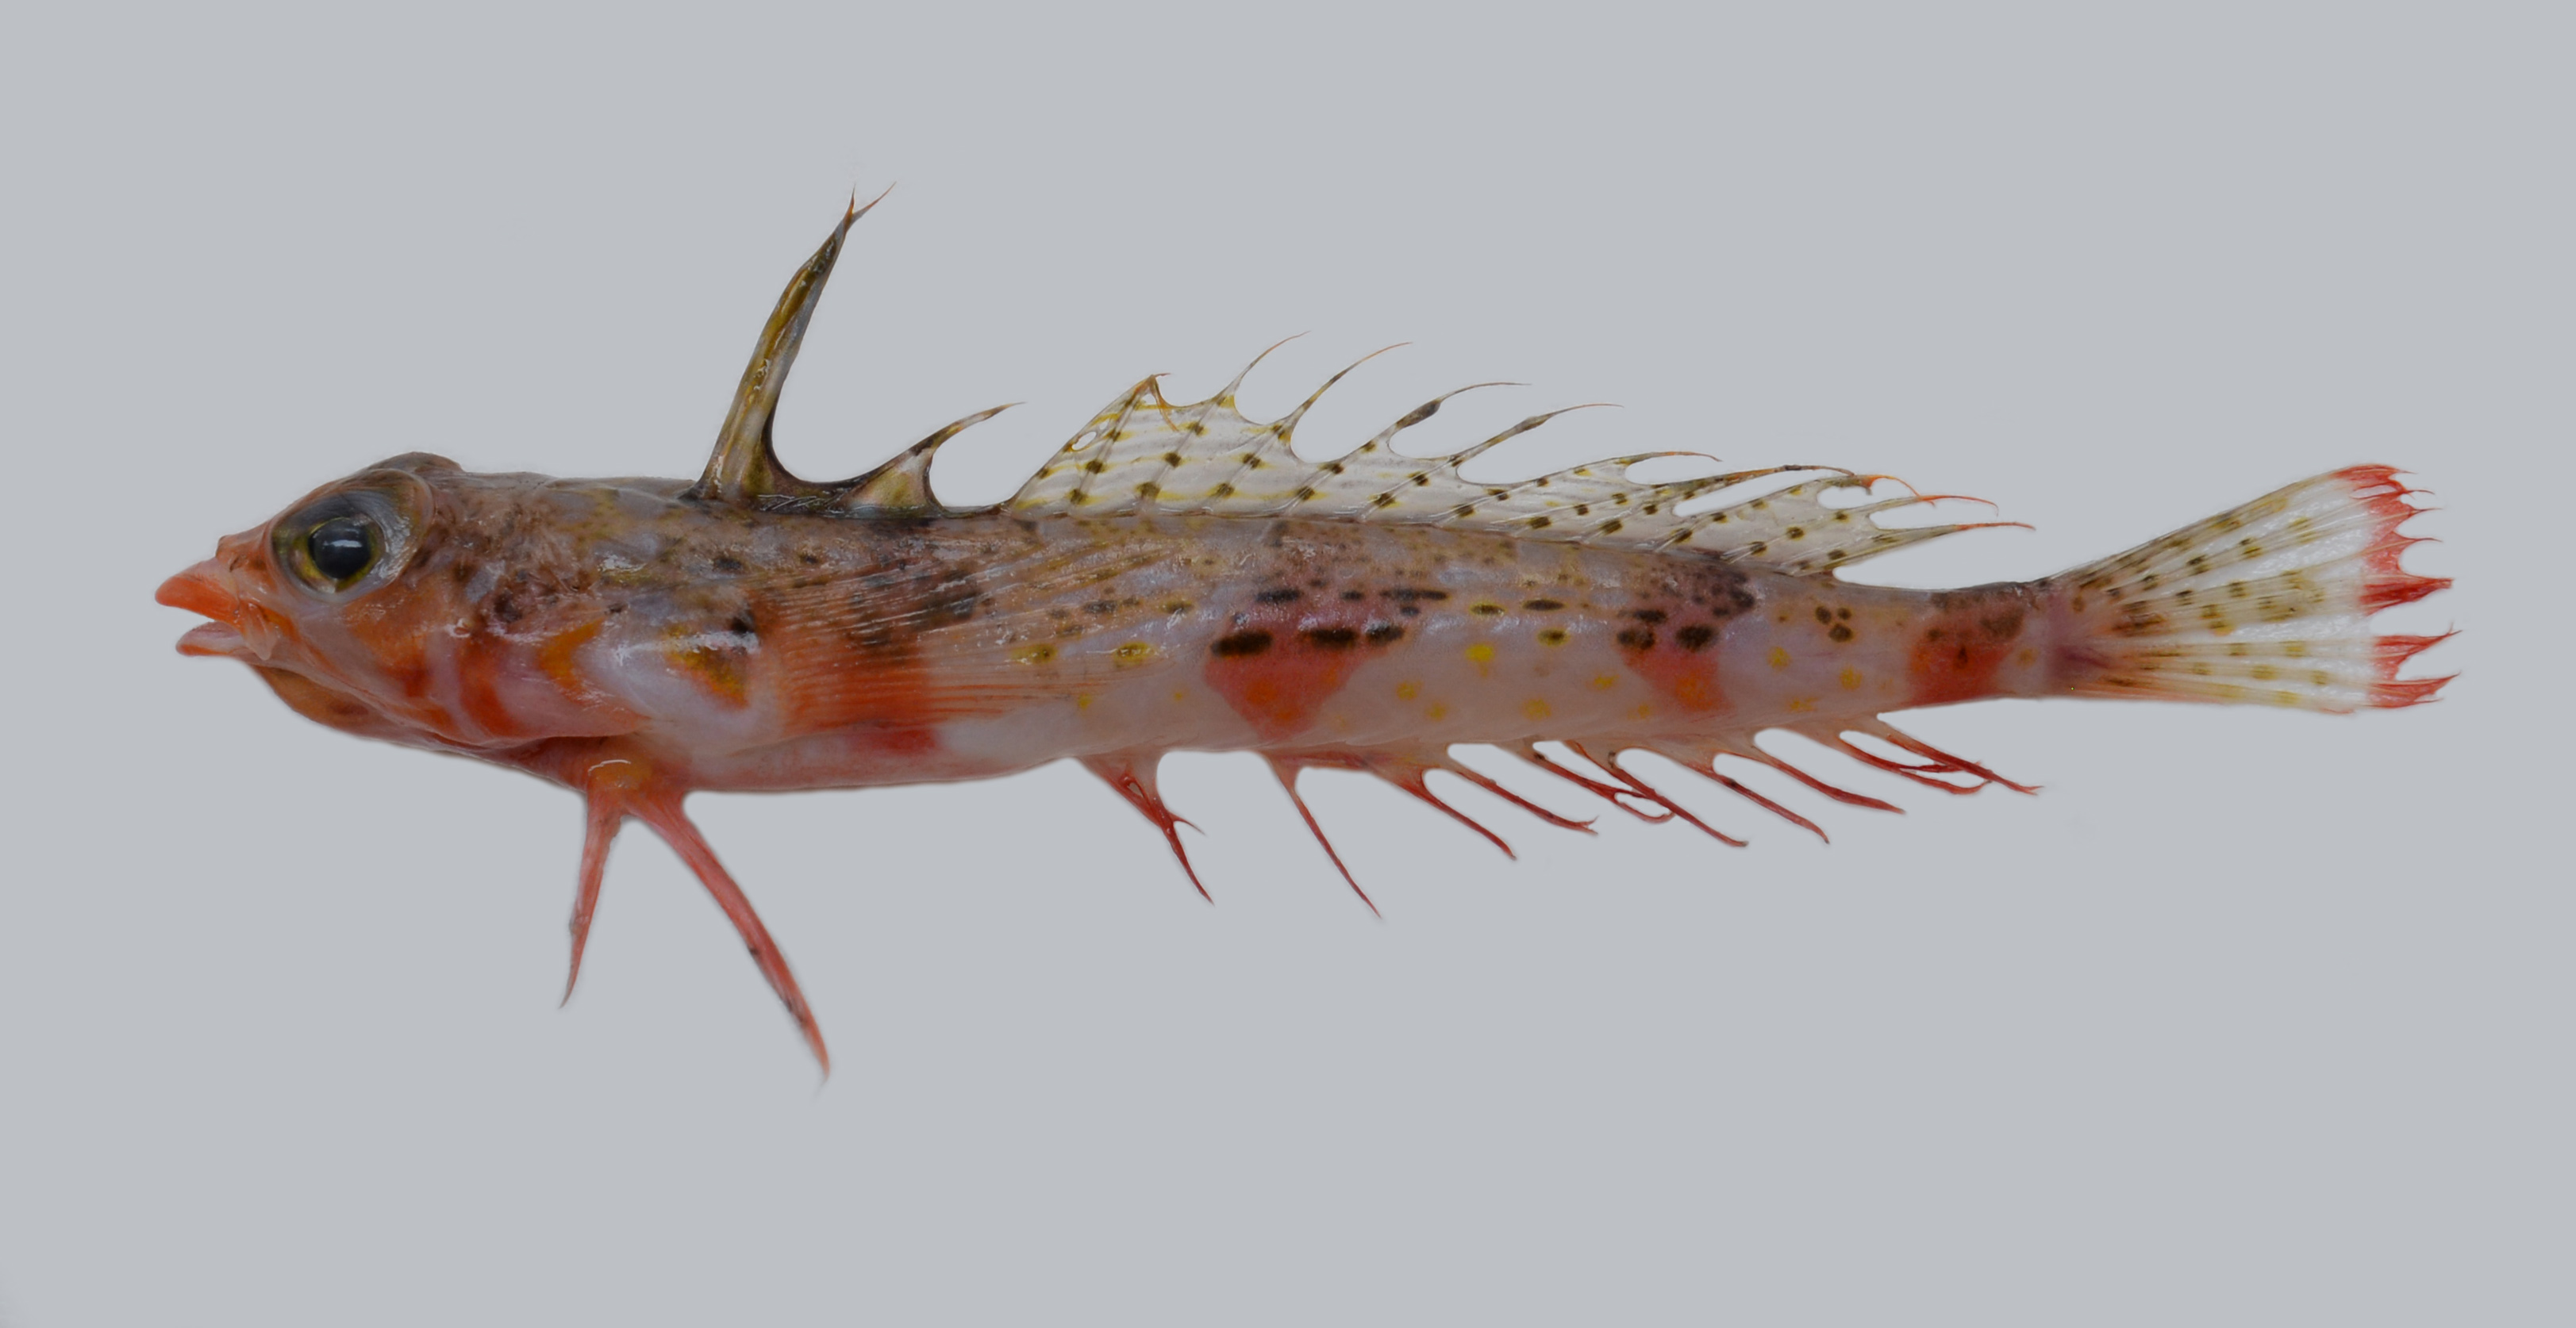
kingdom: Animalia
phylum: Chordata
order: Perciformes
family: Draconettidae
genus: Draconetta
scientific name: Draconetta
